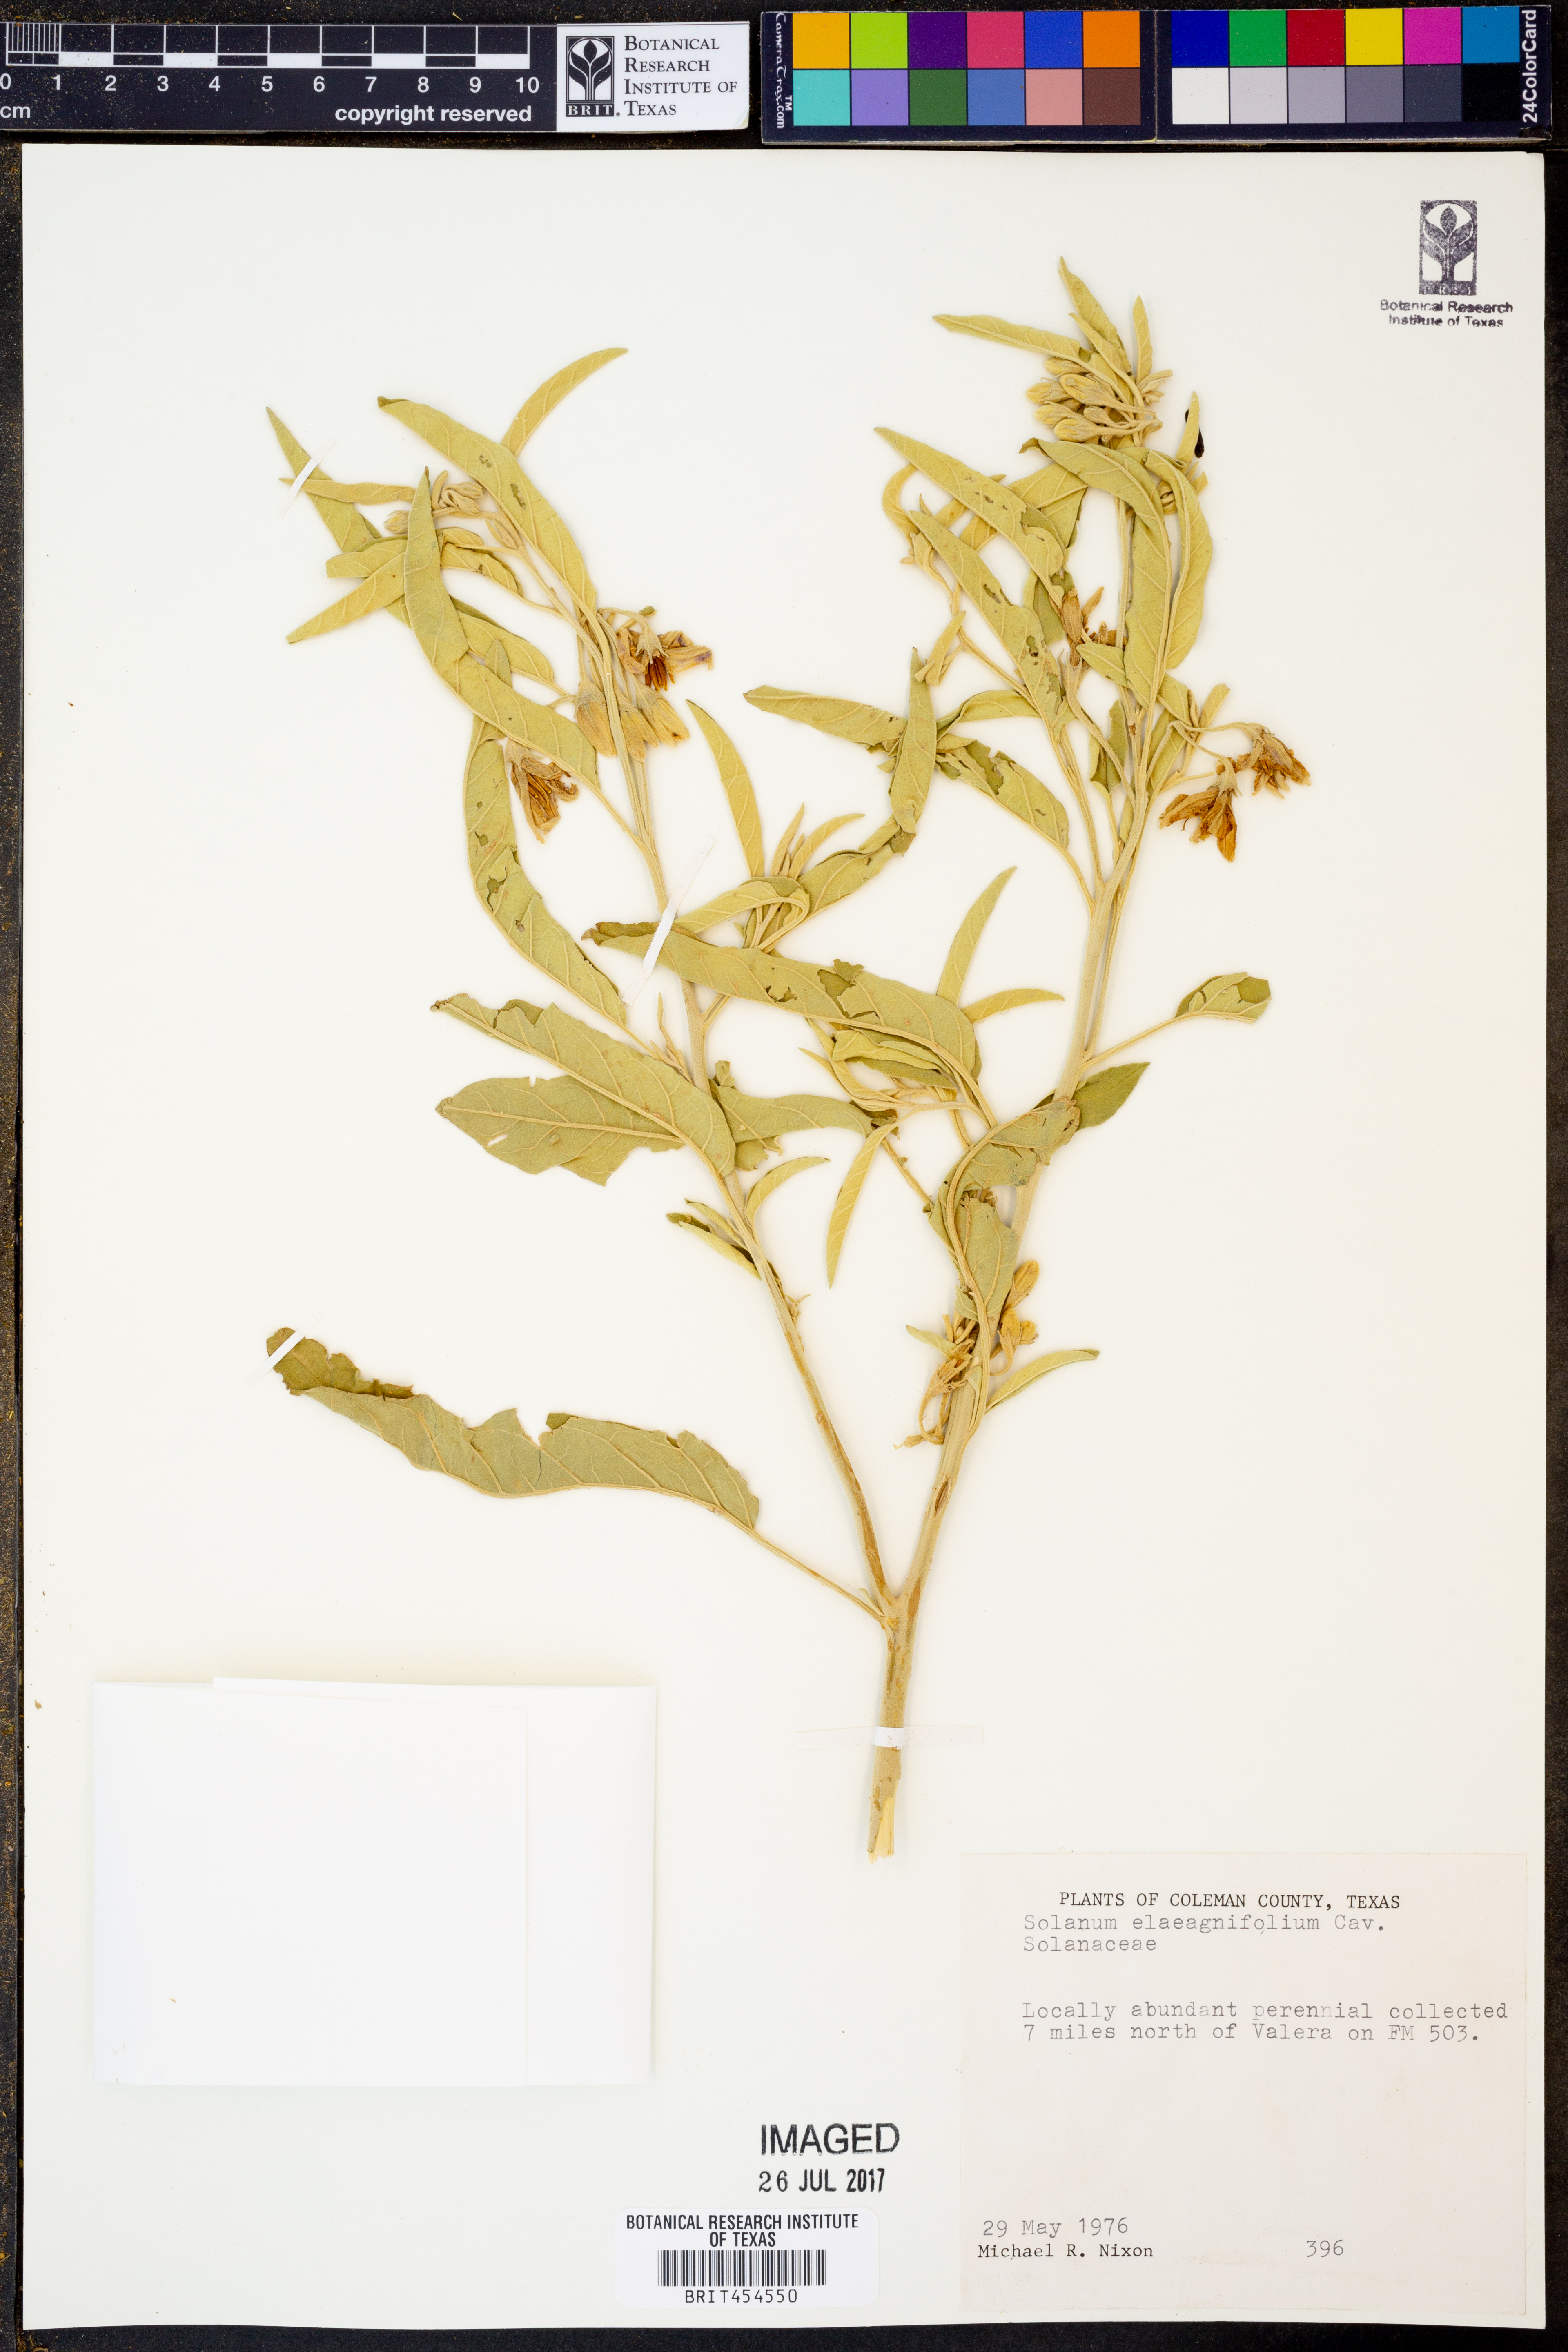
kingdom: Plantae
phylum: Tracheophyta
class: Magnoliopsida
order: Solanales
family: Solanaceae
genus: Solanum
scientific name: Solanum elaeagnifolium
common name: Silverleaf nightshade
